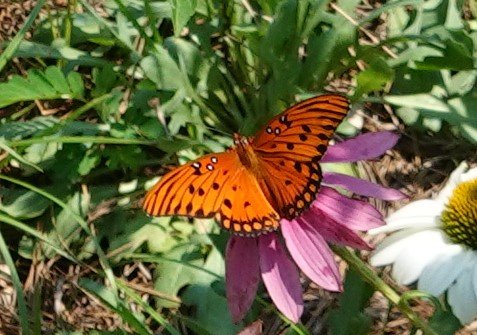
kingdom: Animalia
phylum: Arthropoda
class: Insecta
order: Lepidoptera
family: Nymphalidae
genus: Dione
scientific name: Dione vanillae
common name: Gulf Fritillary
